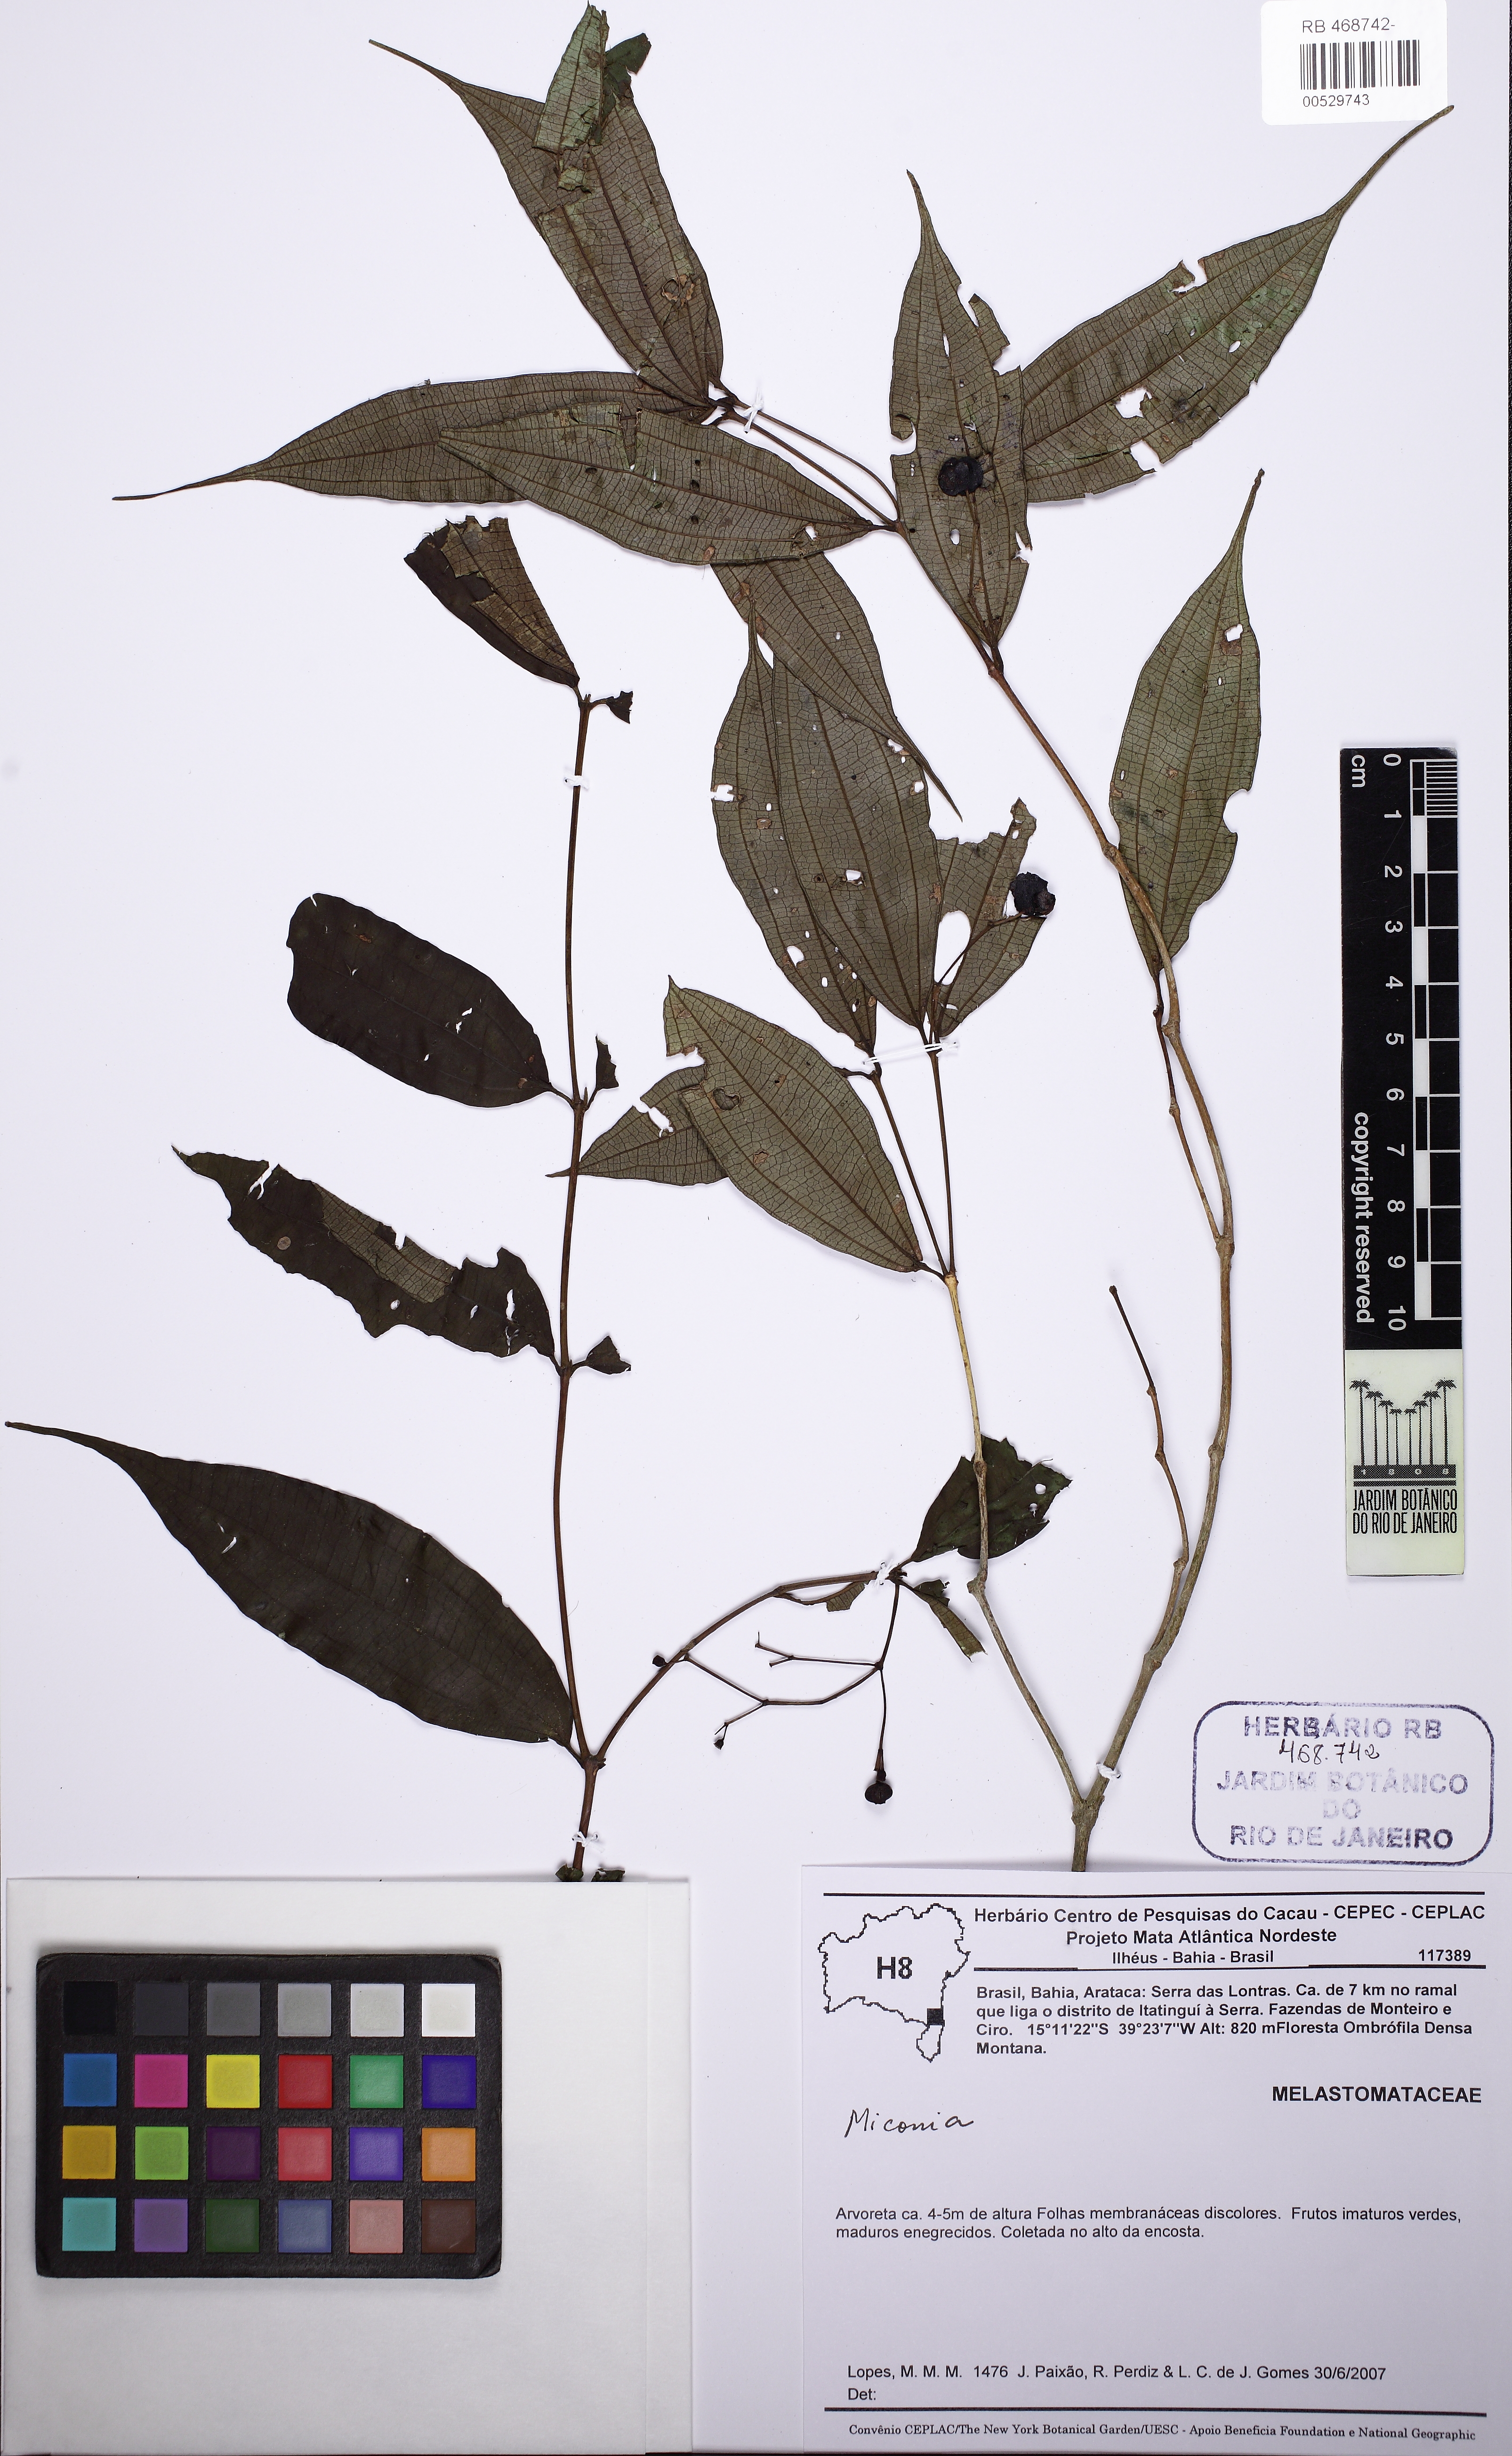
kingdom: Plantae
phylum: Tracheophyta
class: Magnoliopsida
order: Myrtales
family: Melastomataceae
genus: Miconia
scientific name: Miconia
